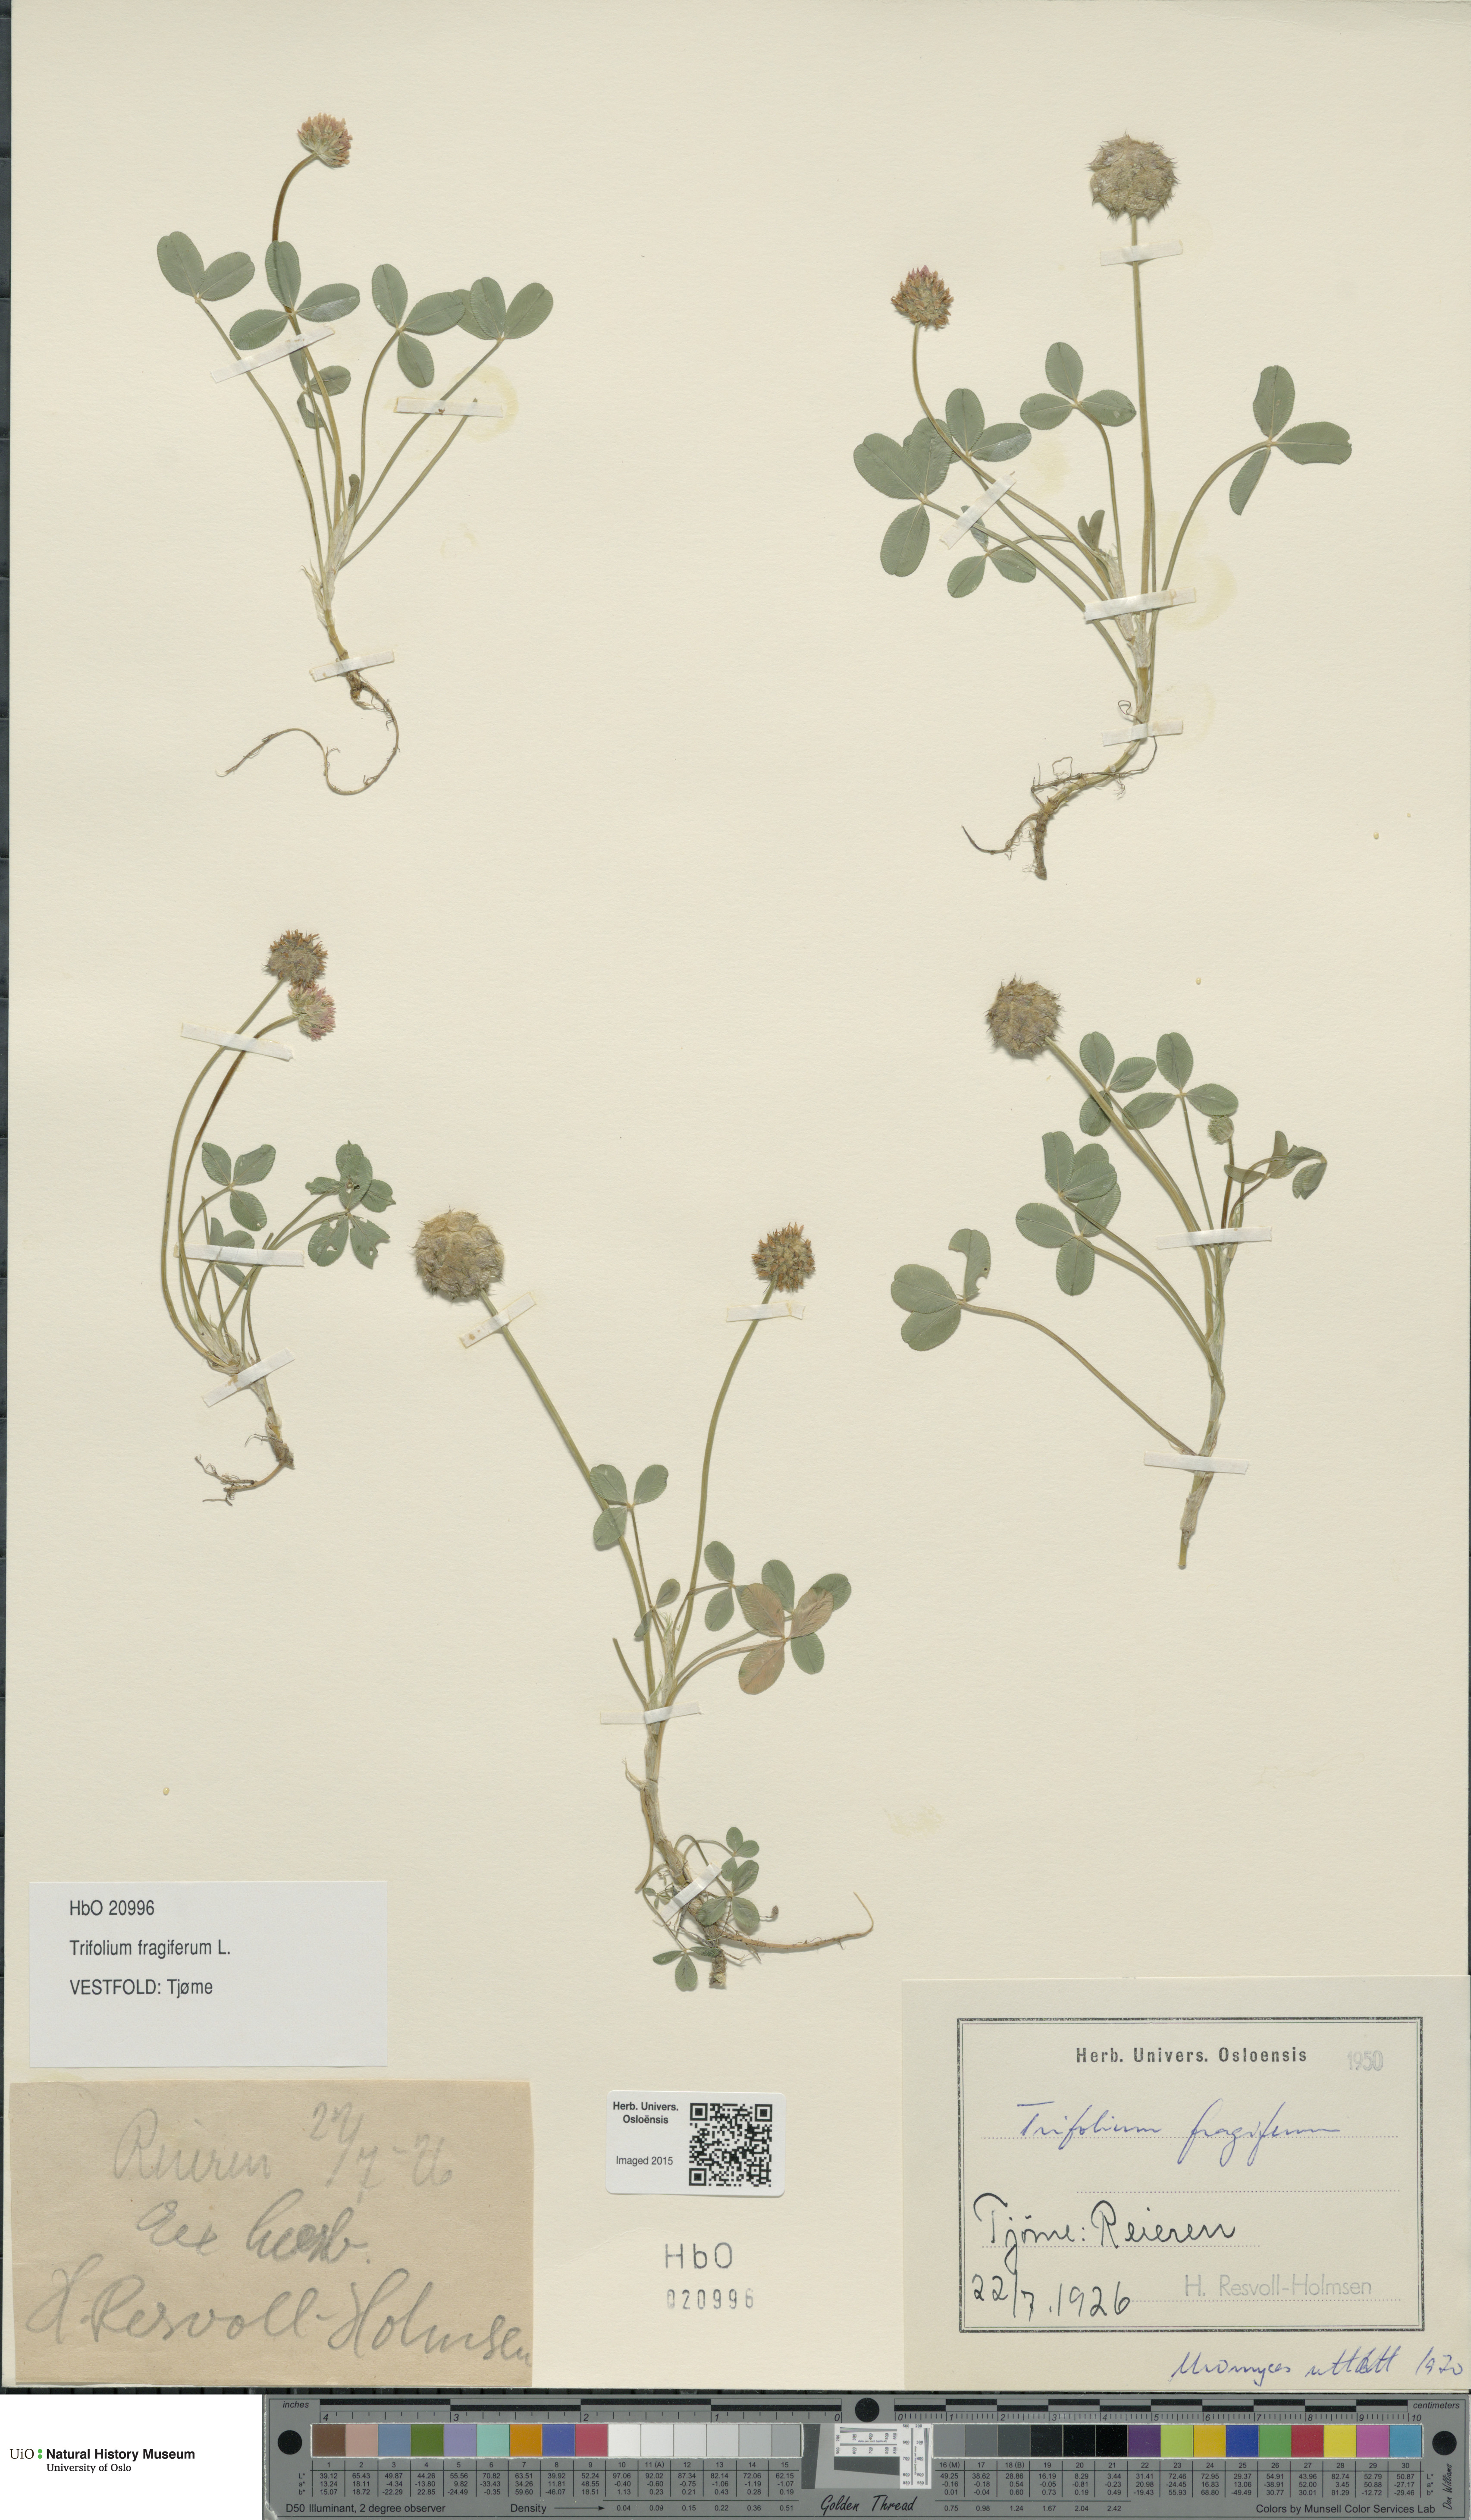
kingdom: Plantae
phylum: Tracheophyta
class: Magnoliopsida
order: Fabales
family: Fabaceae
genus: Trifolium
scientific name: Trifolium fragiferum
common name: Strawberry clover
